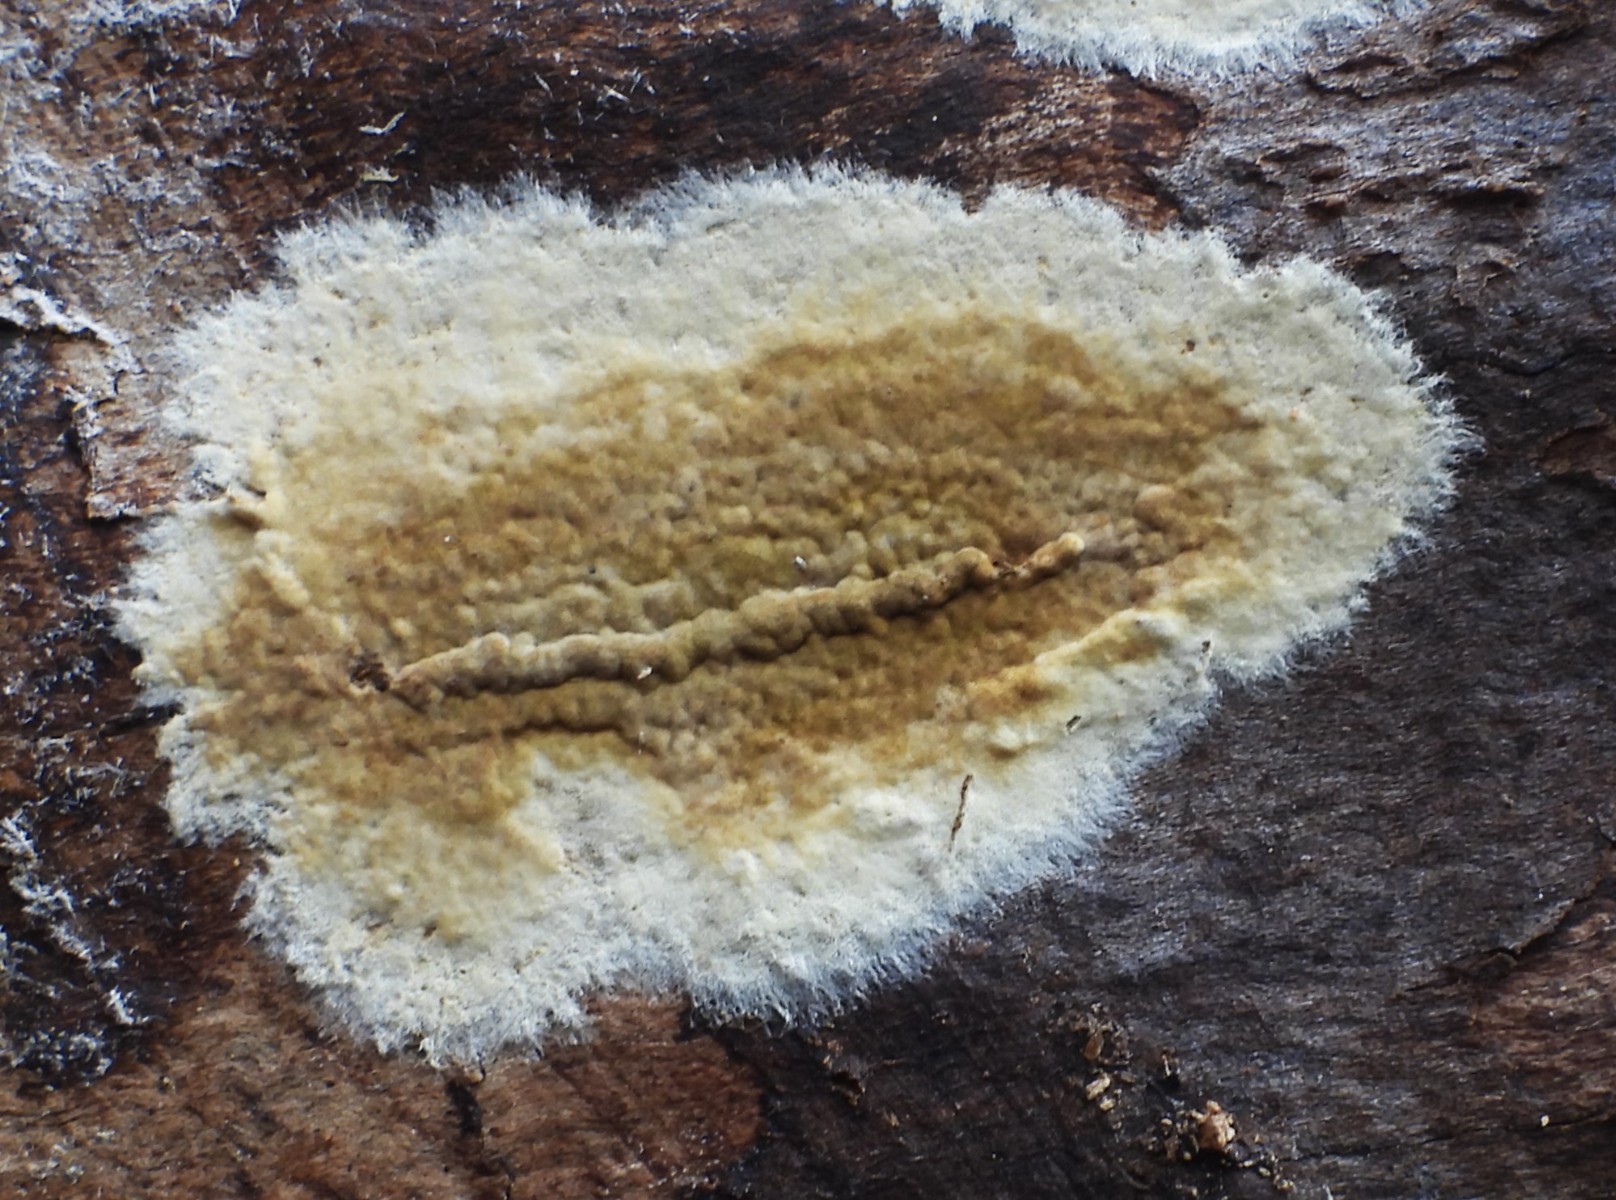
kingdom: Fungi
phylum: Basidiomycota
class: Agaricomycetes
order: Boletales
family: Coniophoraceae
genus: Coniophora
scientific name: Coniophora puteana
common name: gul tømmersvamp
